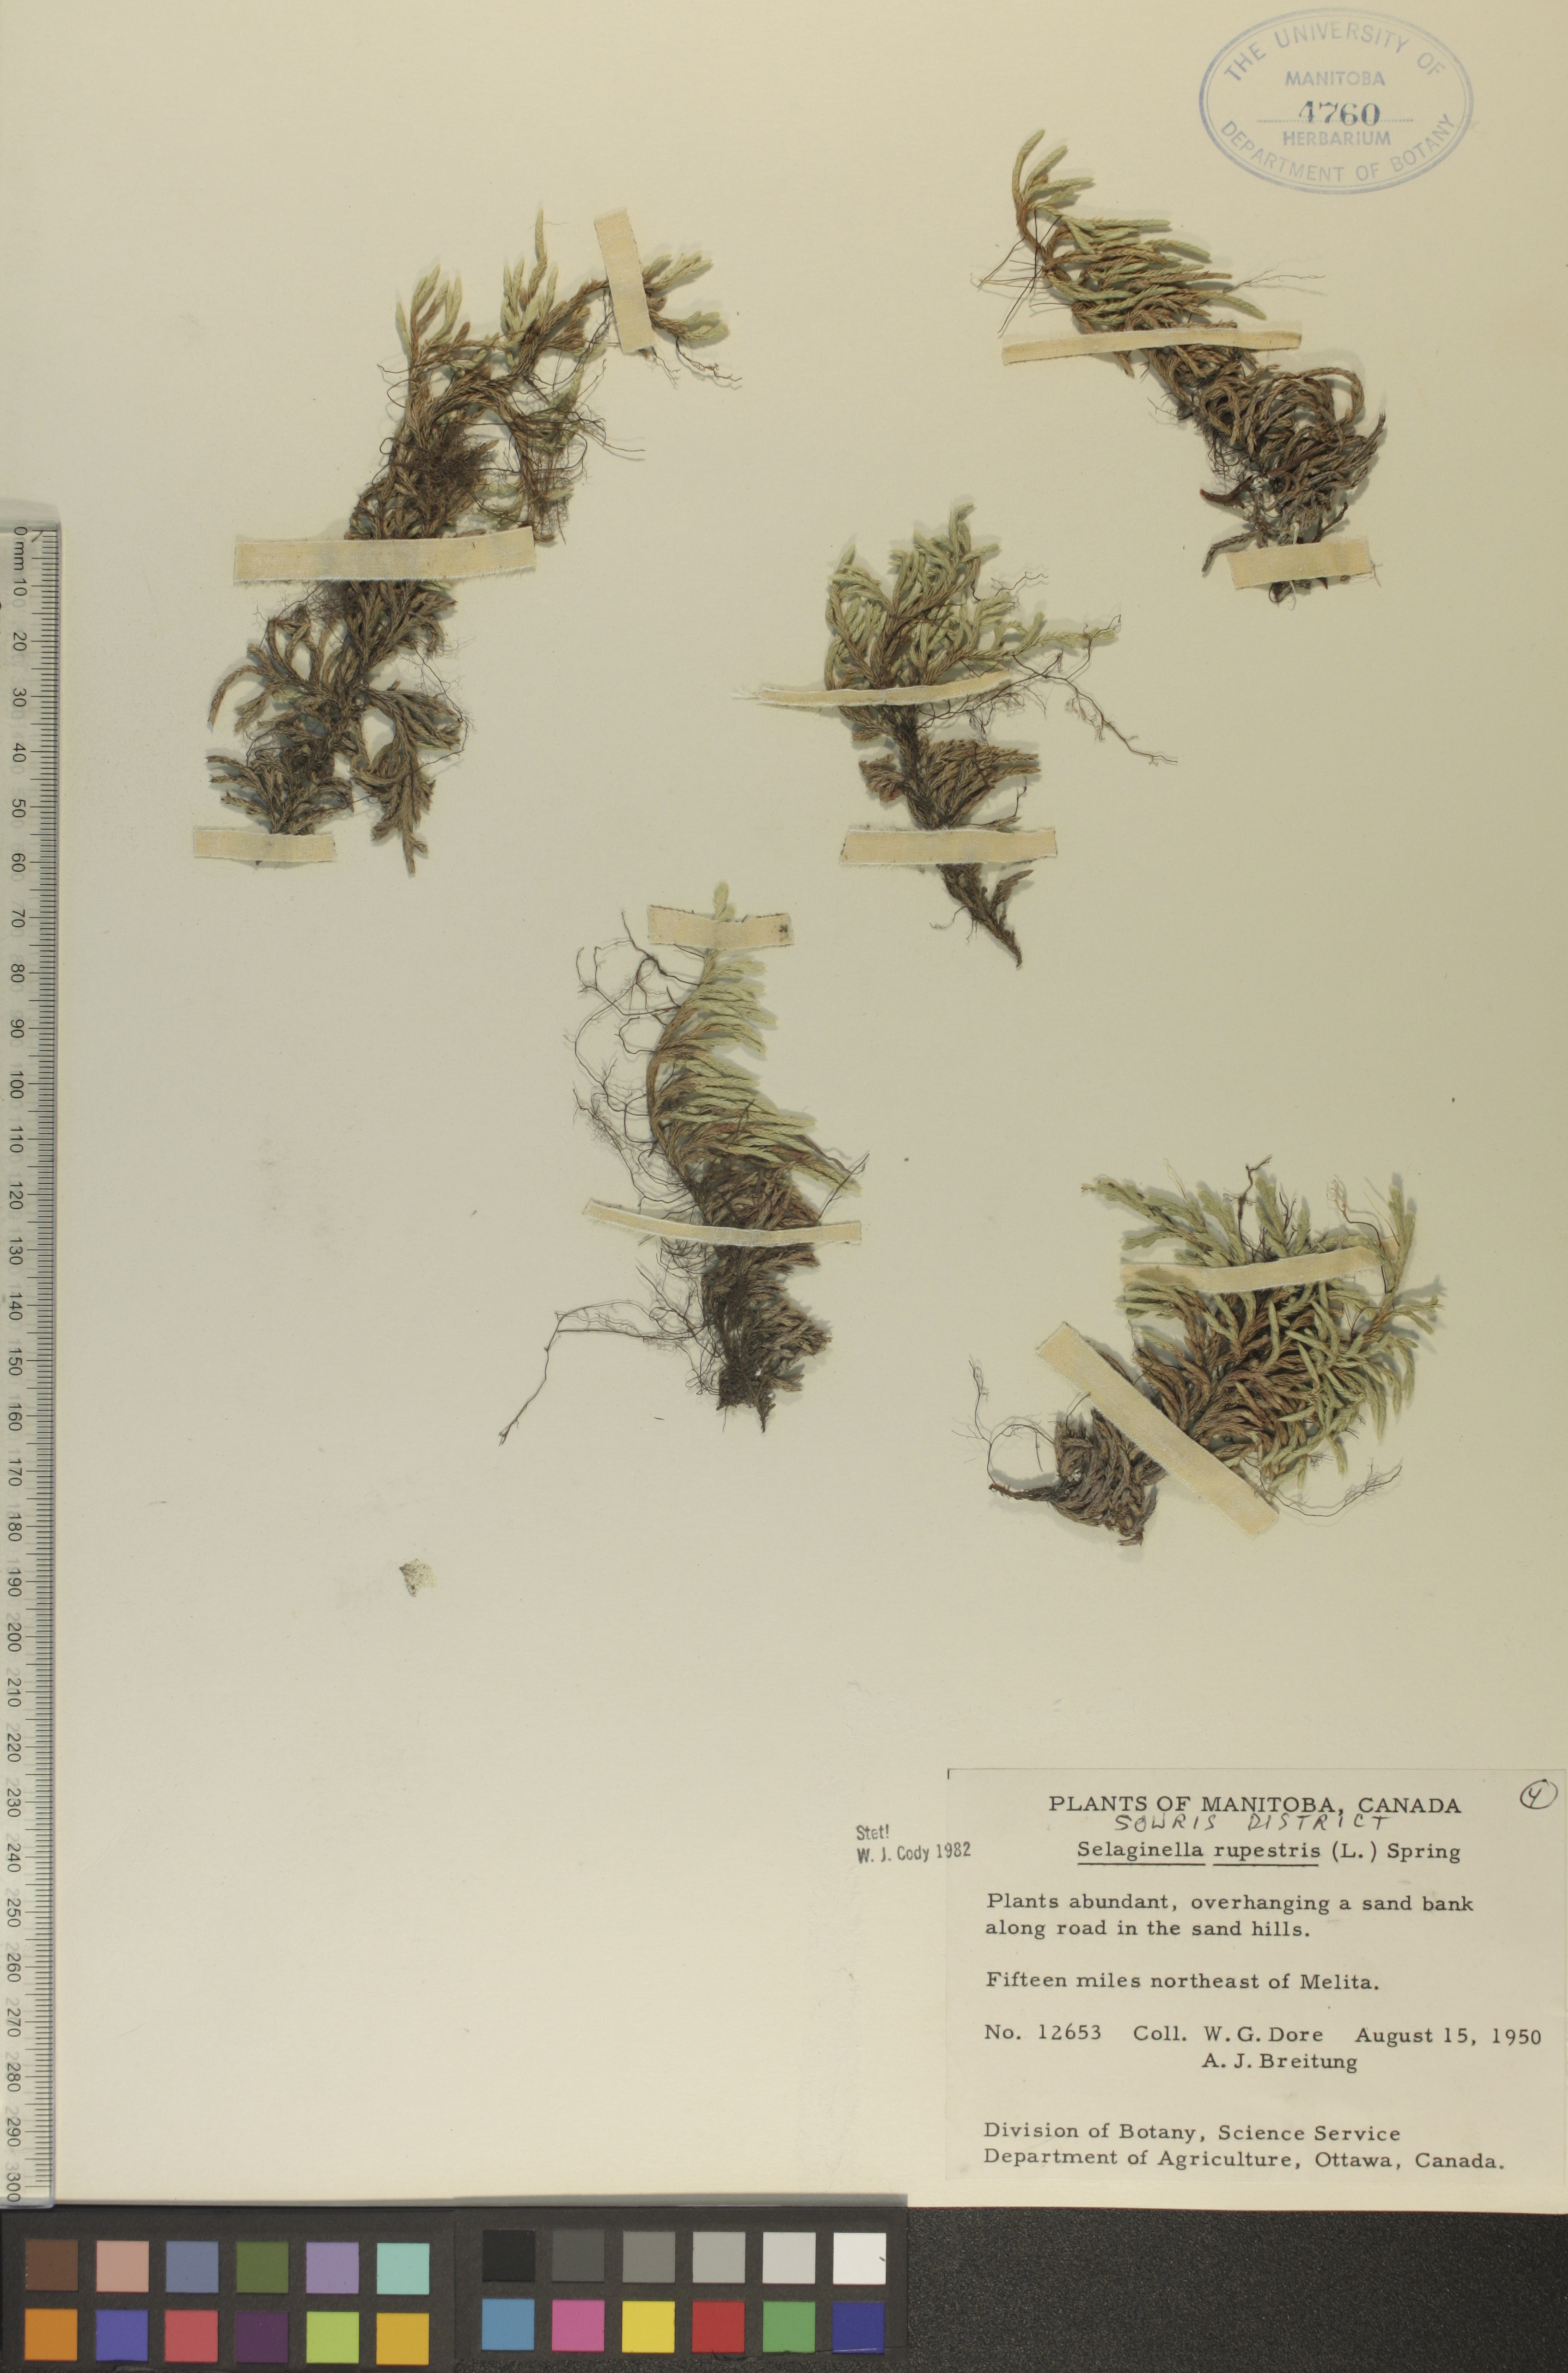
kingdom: Plantae
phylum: Tracheophyta
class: Lycopodiopsida
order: Selaginellales
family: Selaginellaceae
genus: Selaginella
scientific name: Selaginella rupestris
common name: Dwarf spikemoss
